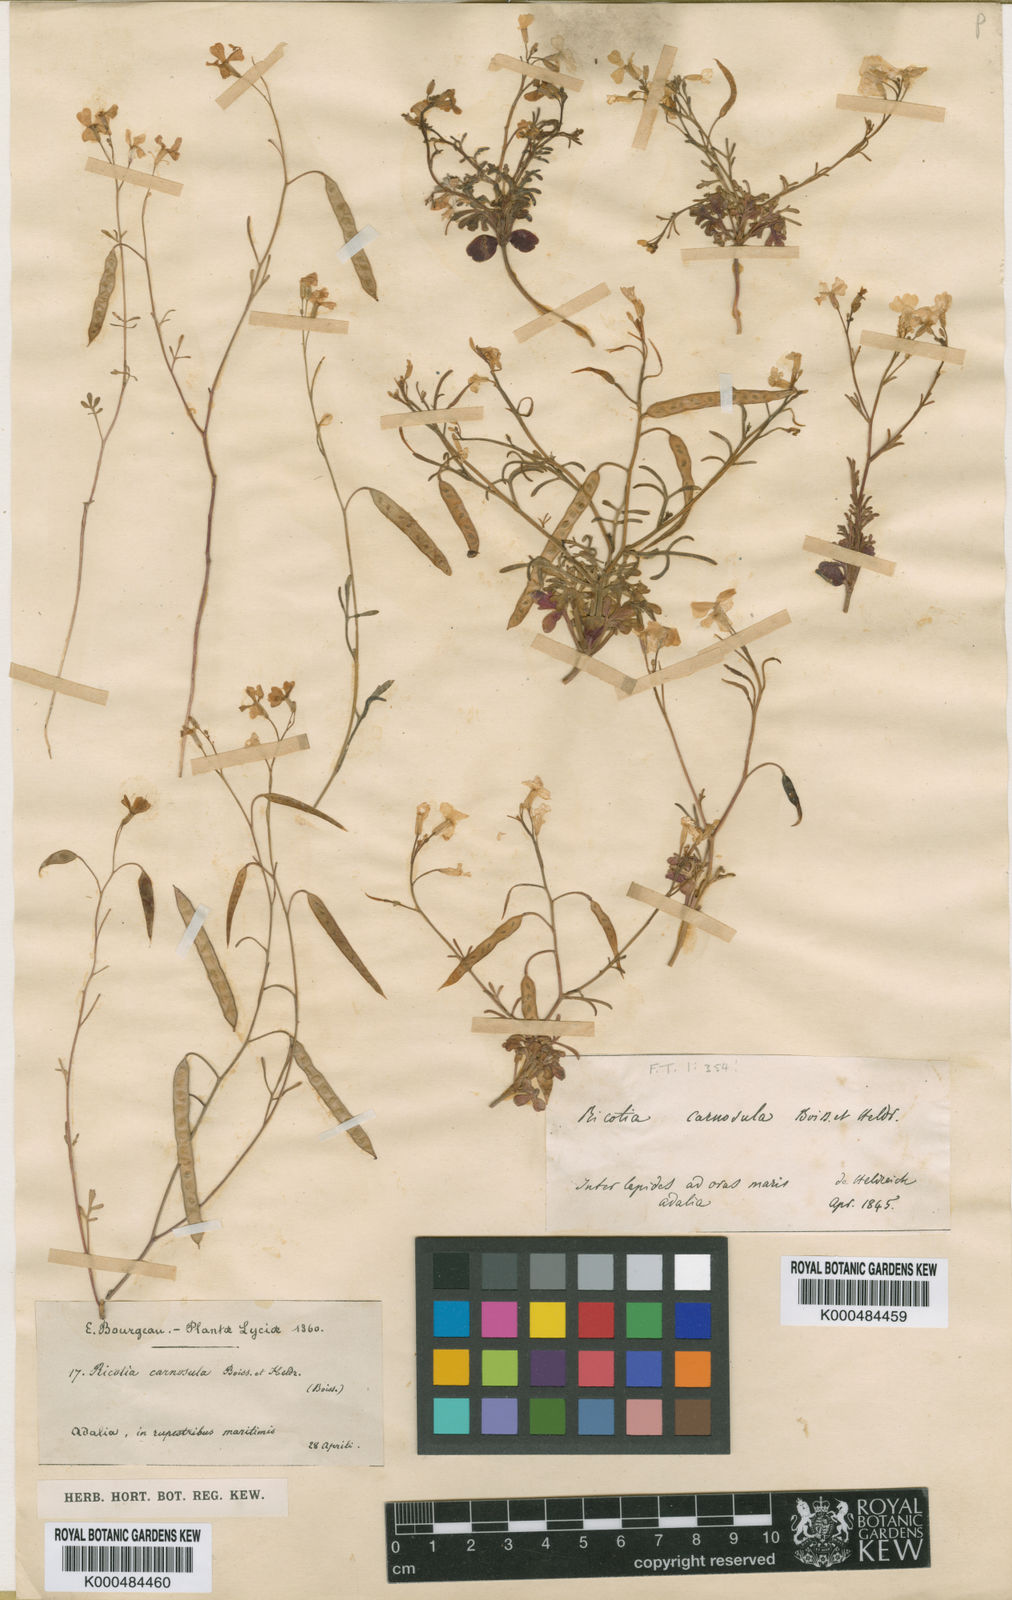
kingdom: Plantae
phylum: Tracheophyta
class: Magnoliopsida
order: Brassicales
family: Brassicaceae
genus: Ricotia
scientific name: Ricotia carnosula
